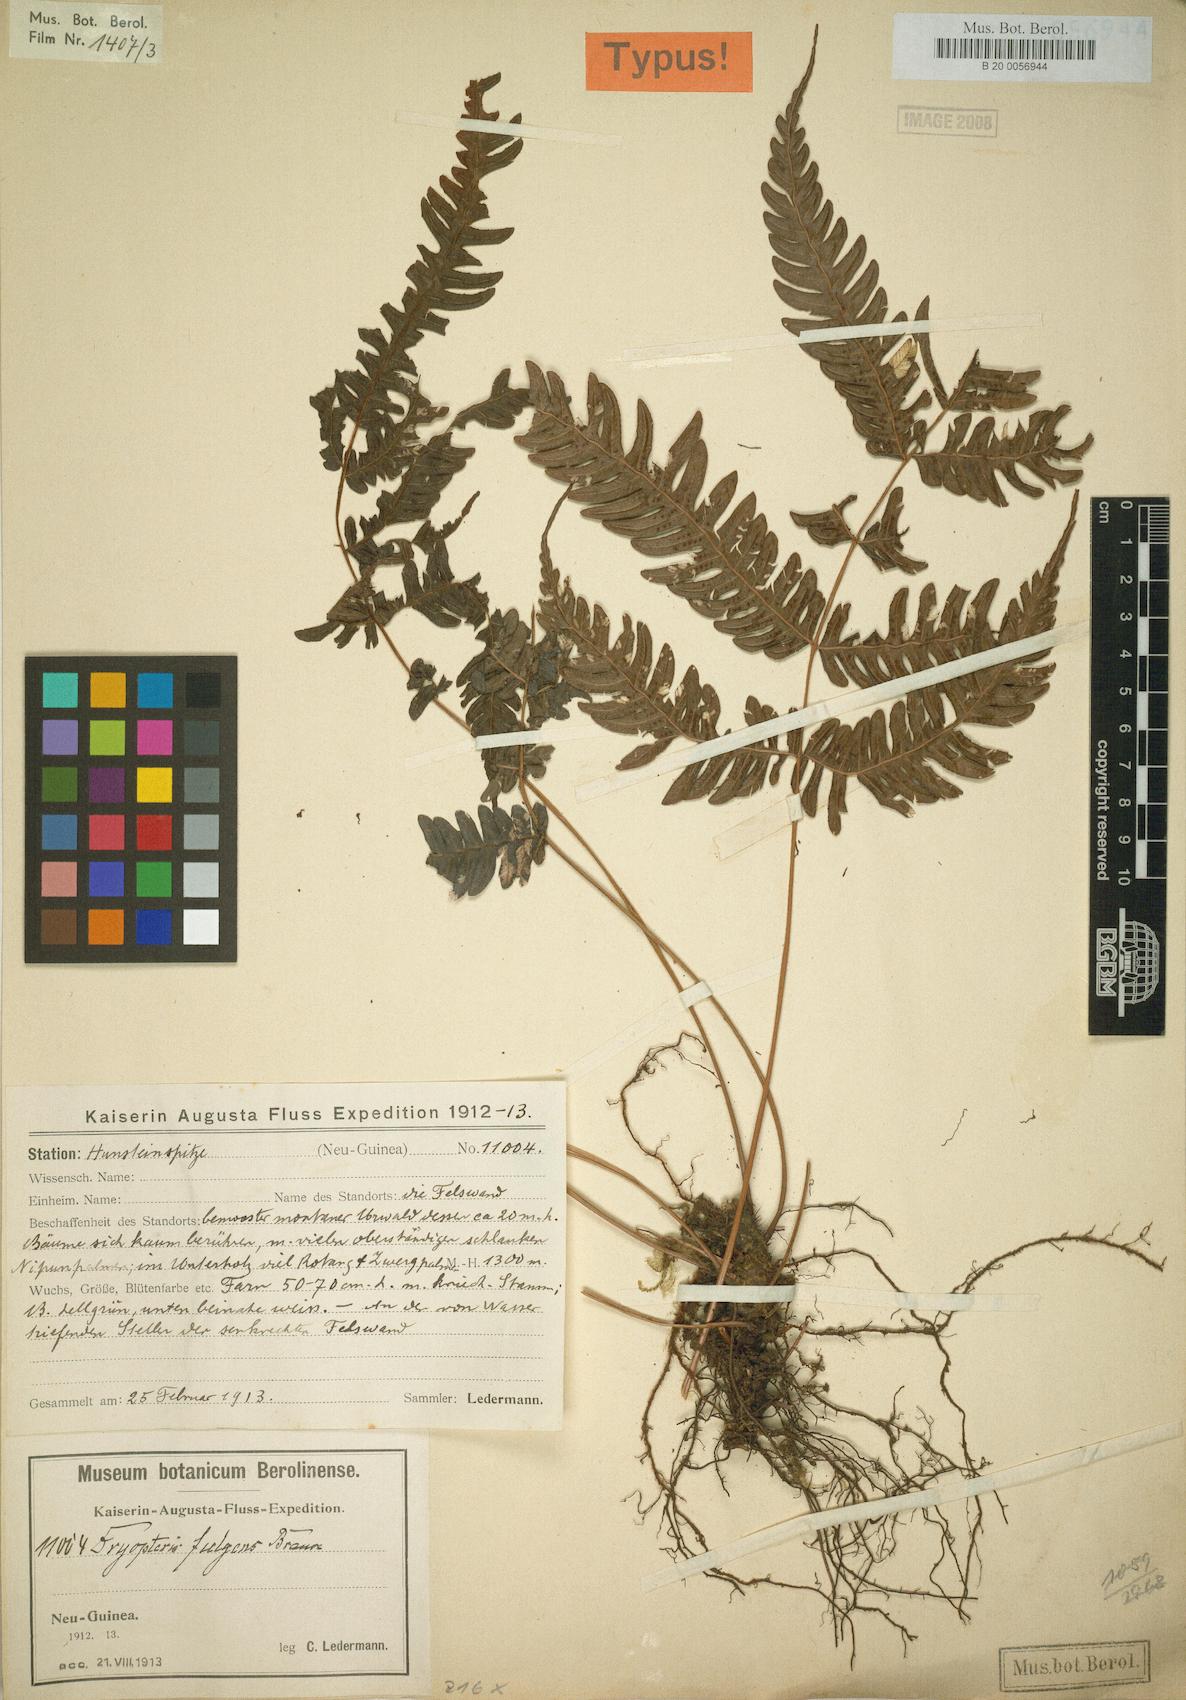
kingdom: Plantae
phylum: Tracheophyta
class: Polypodiopsida
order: Polypodiales
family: Thelypteridaceae
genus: Plesioneuron
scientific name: Plesioneuron fulgens
